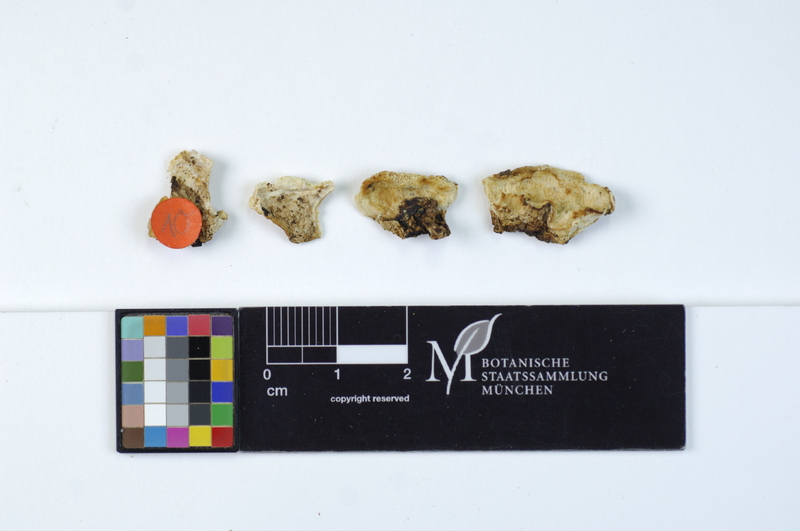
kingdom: Plantae
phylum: Tracheophyta
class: Pinopsida
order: Pinales
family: Pinaceae
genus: Pinus
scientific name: Pinus
